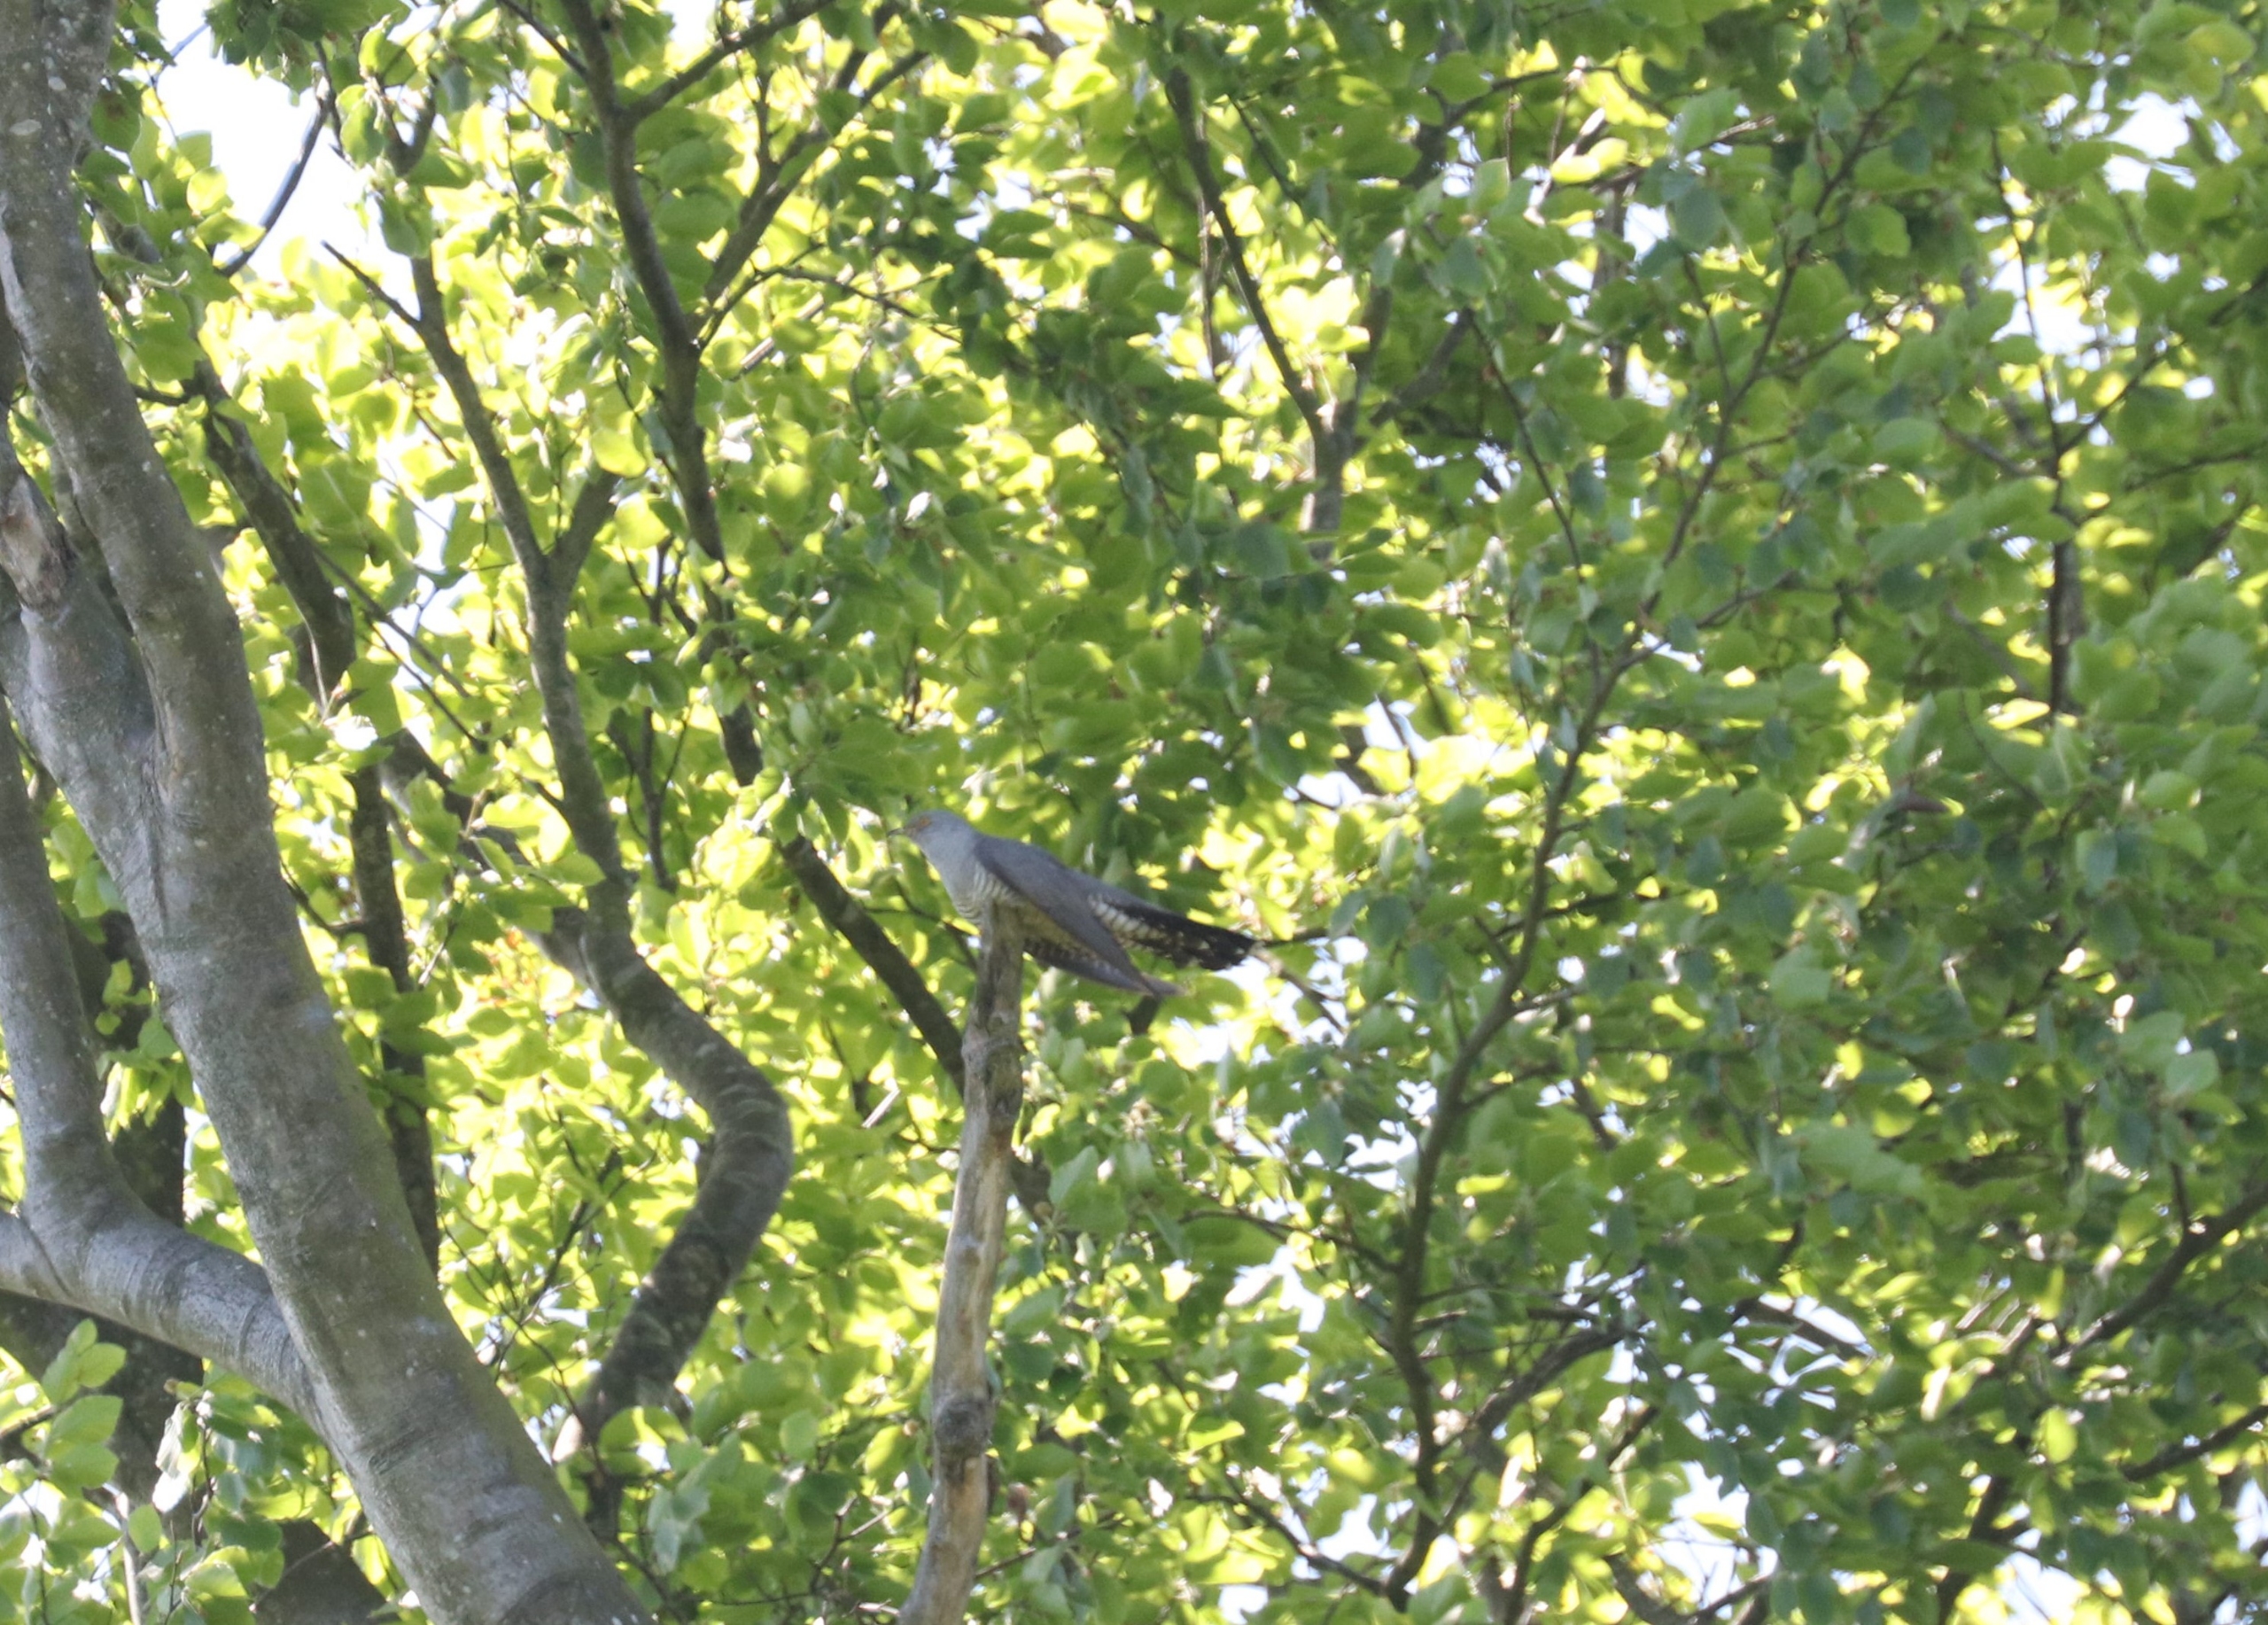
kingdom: Animalia
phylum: Chordata
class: Aves
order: Cuculiformes
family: Cuculidae
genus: Cuculus
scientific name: Cuculus canorus
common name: Gøg
